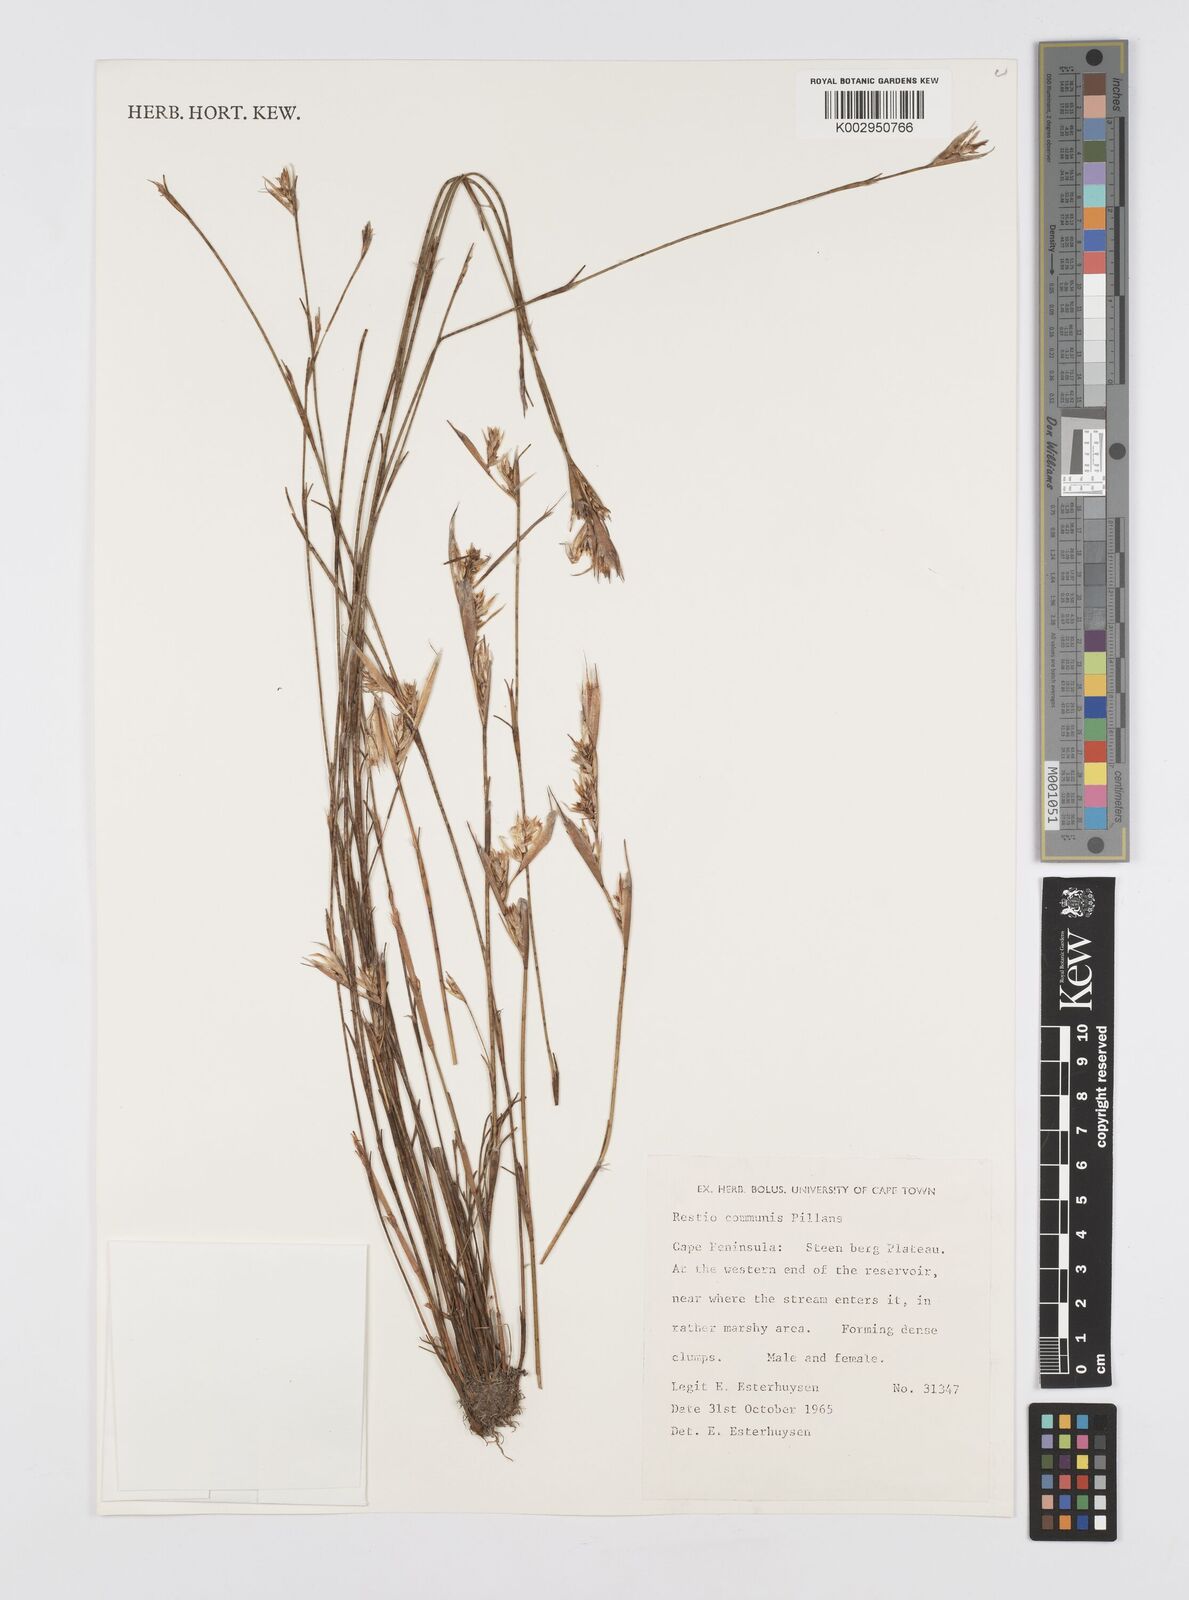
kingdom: Plantae
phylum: Tracheophyta
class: Liliopsida
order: Poales
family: Restionaceae
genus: Restio
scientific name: Restio communis
